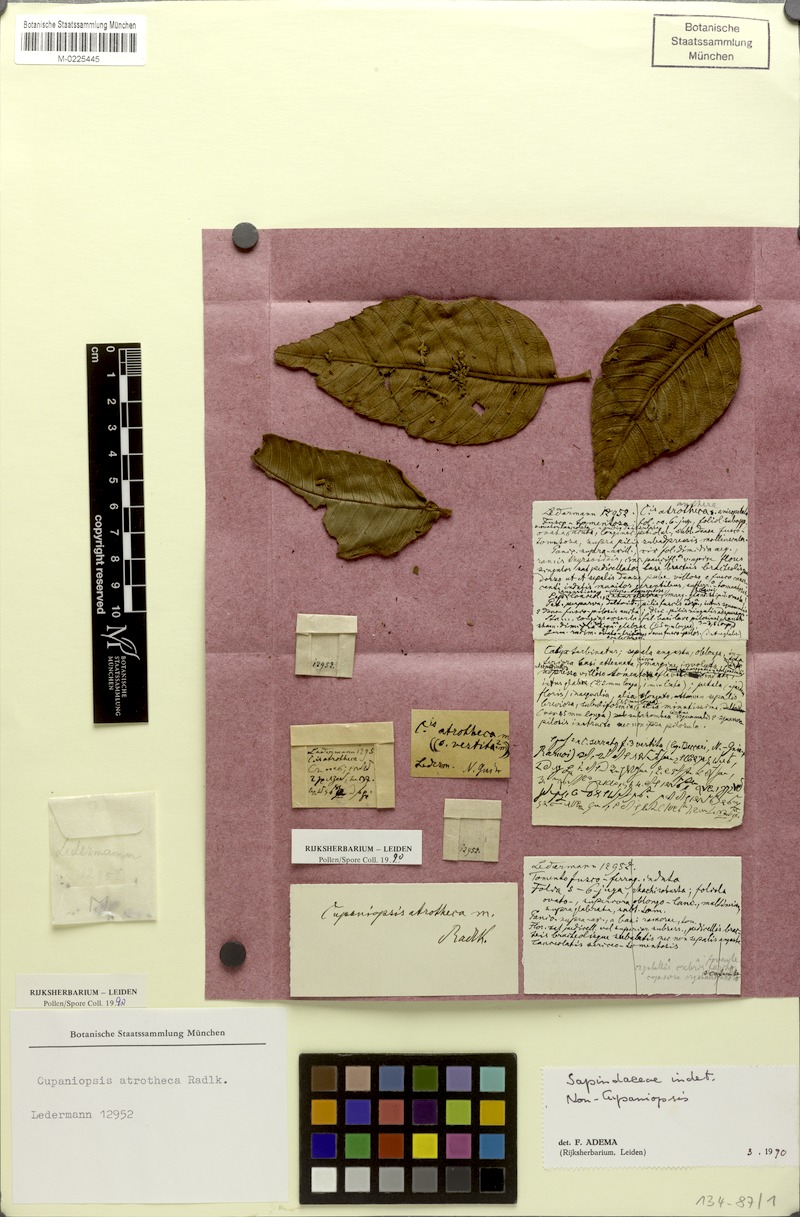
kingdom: Plantae
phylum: Tracheophyta
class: Magnoliopsida
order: Sapindales
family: Sapindaceae
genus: Cupaniopsis
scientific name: Cupaniopsis atrotheca
